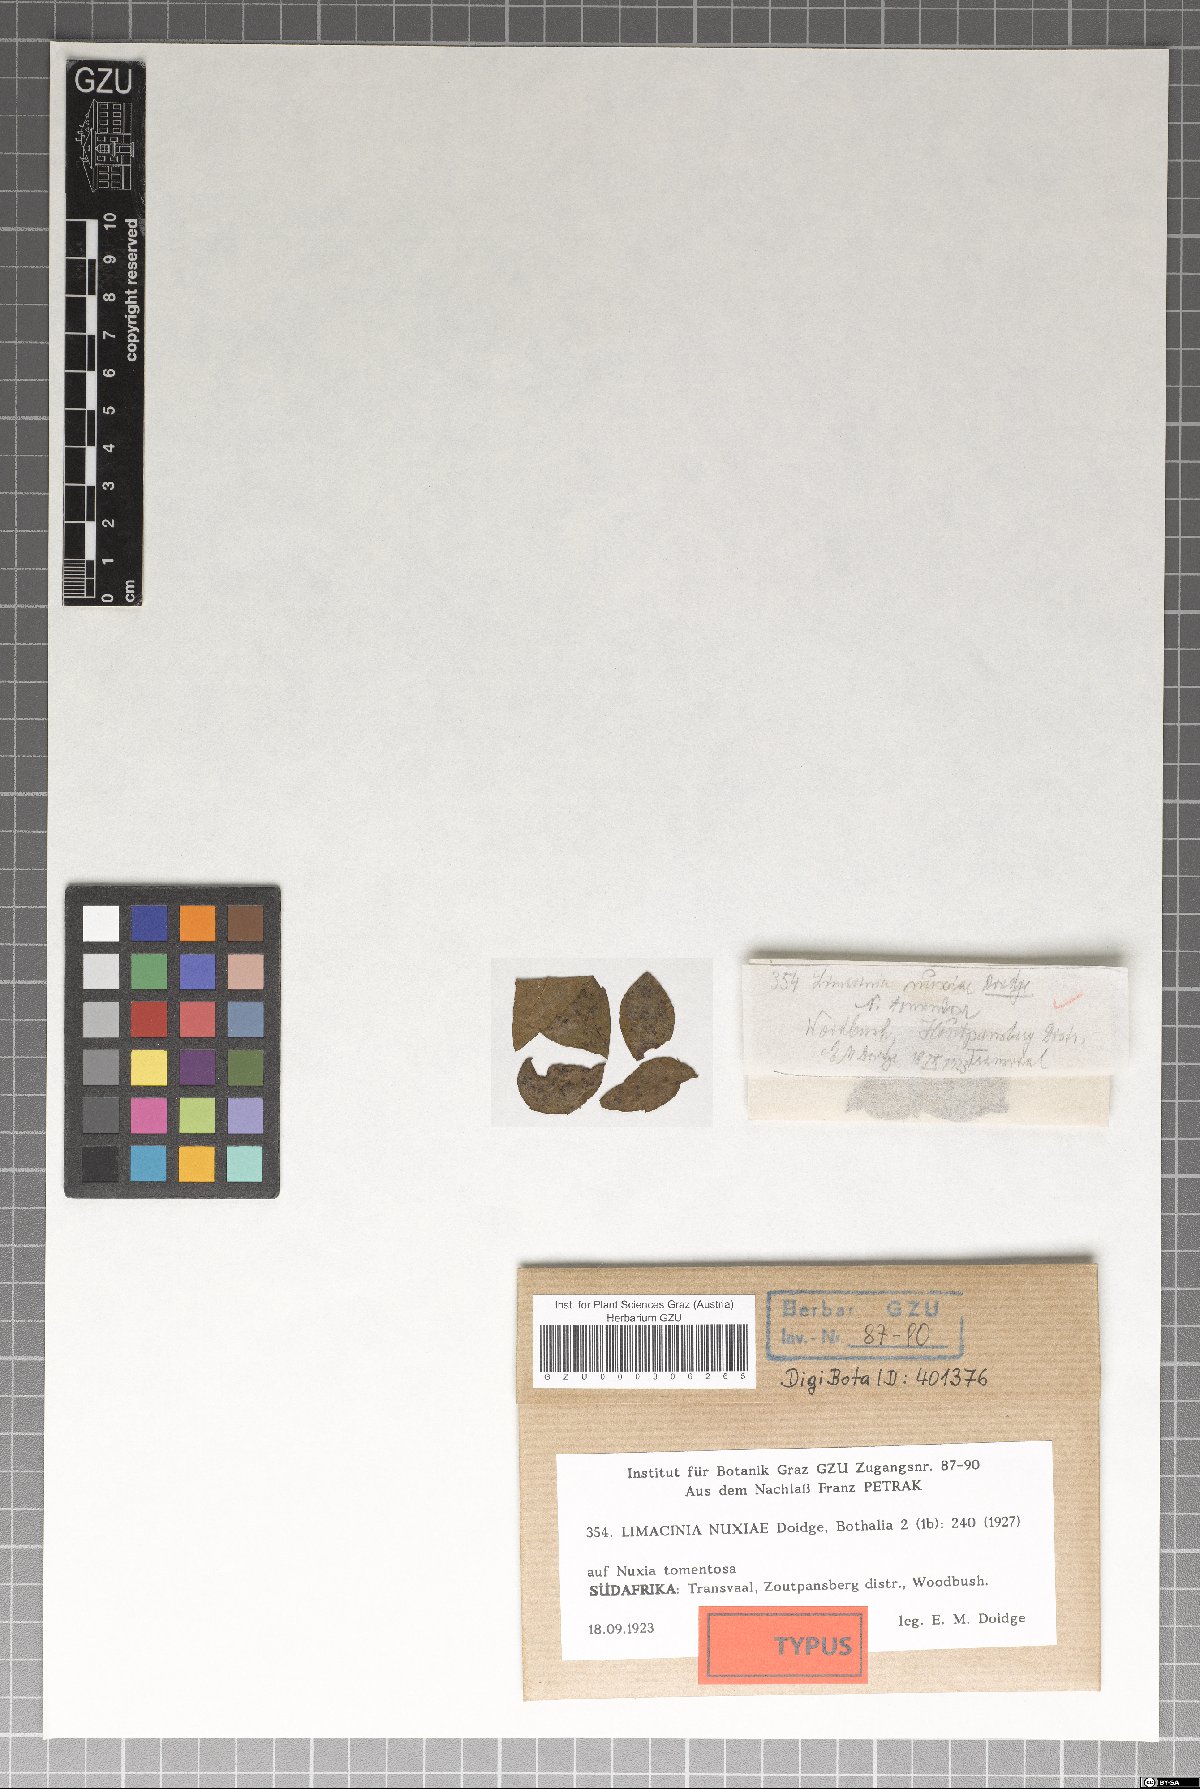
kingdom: Fungi
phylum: Ascomycota
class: Dothideomycetes
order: Microthyriales
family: Micropeltidaceae
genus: Microcallis
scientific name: Microcallis nuxiae
